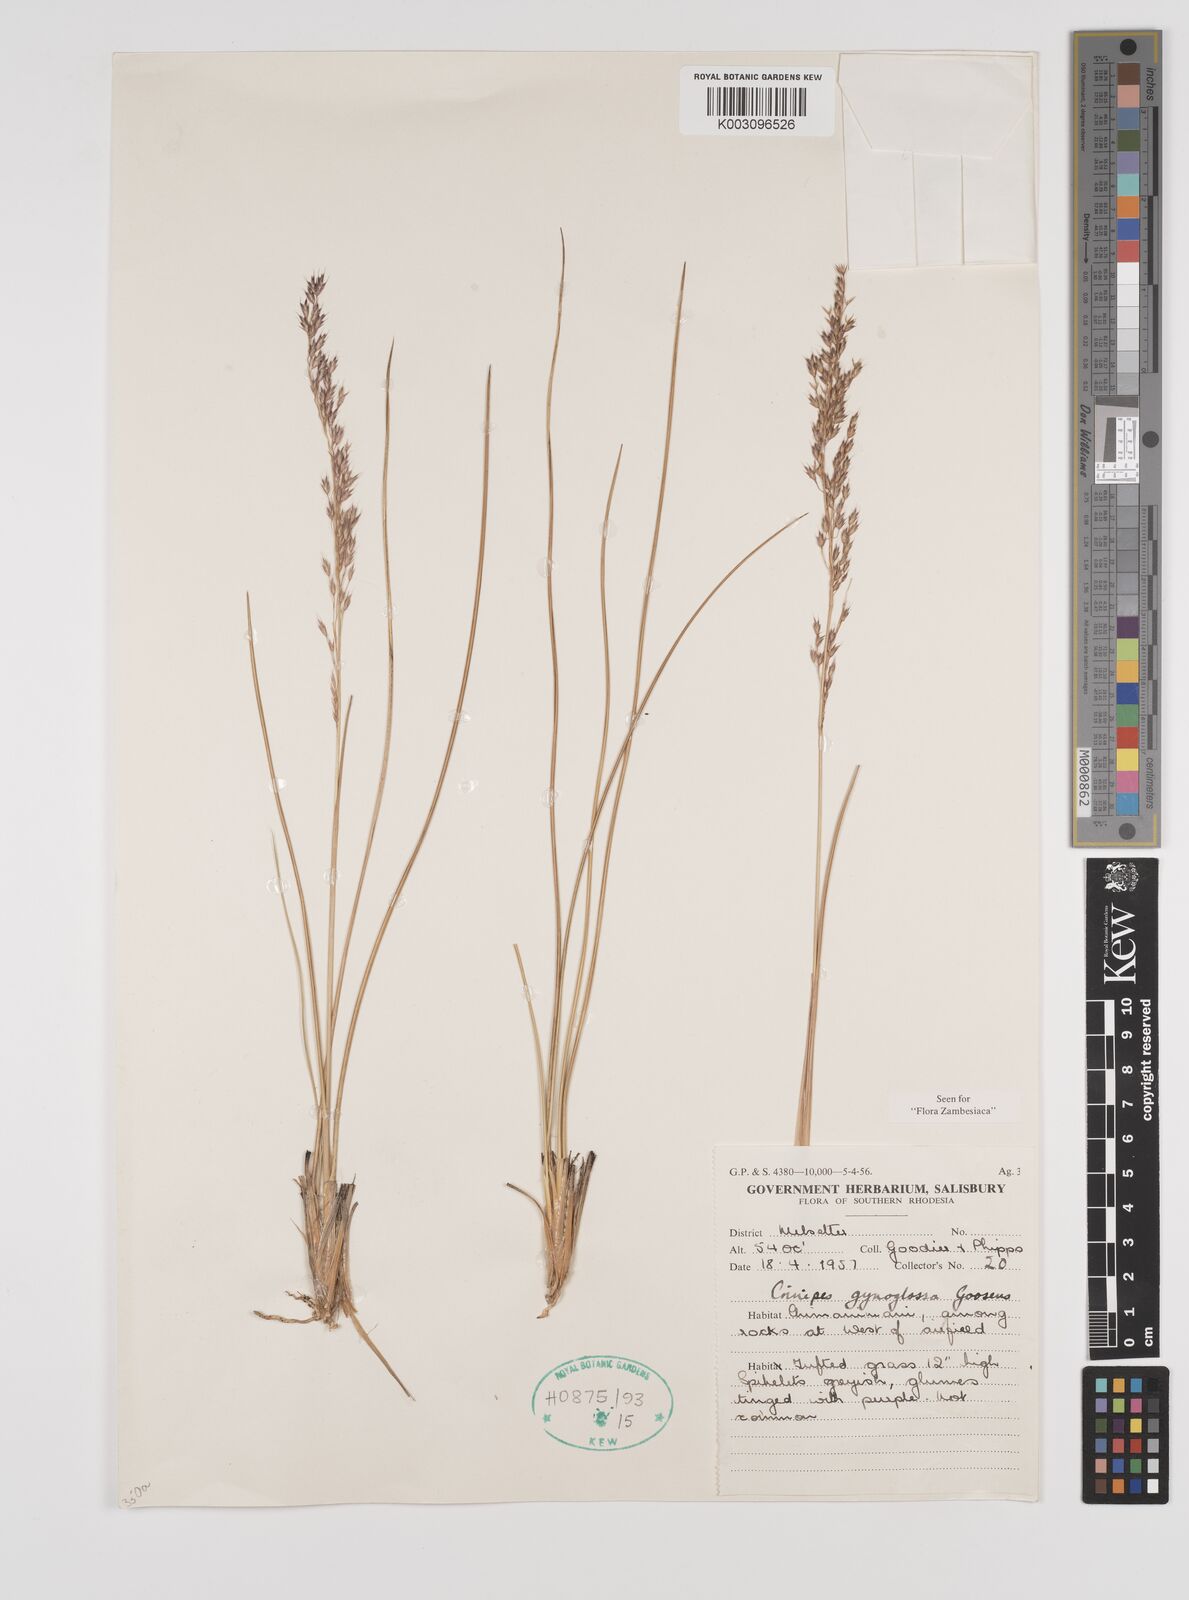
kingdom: Plantae
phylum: Tracheophyta
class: Liliopsida
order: Poales
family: Poaceae
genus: Styppeiochloa
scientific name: Styppeiochloa gynoglossa
